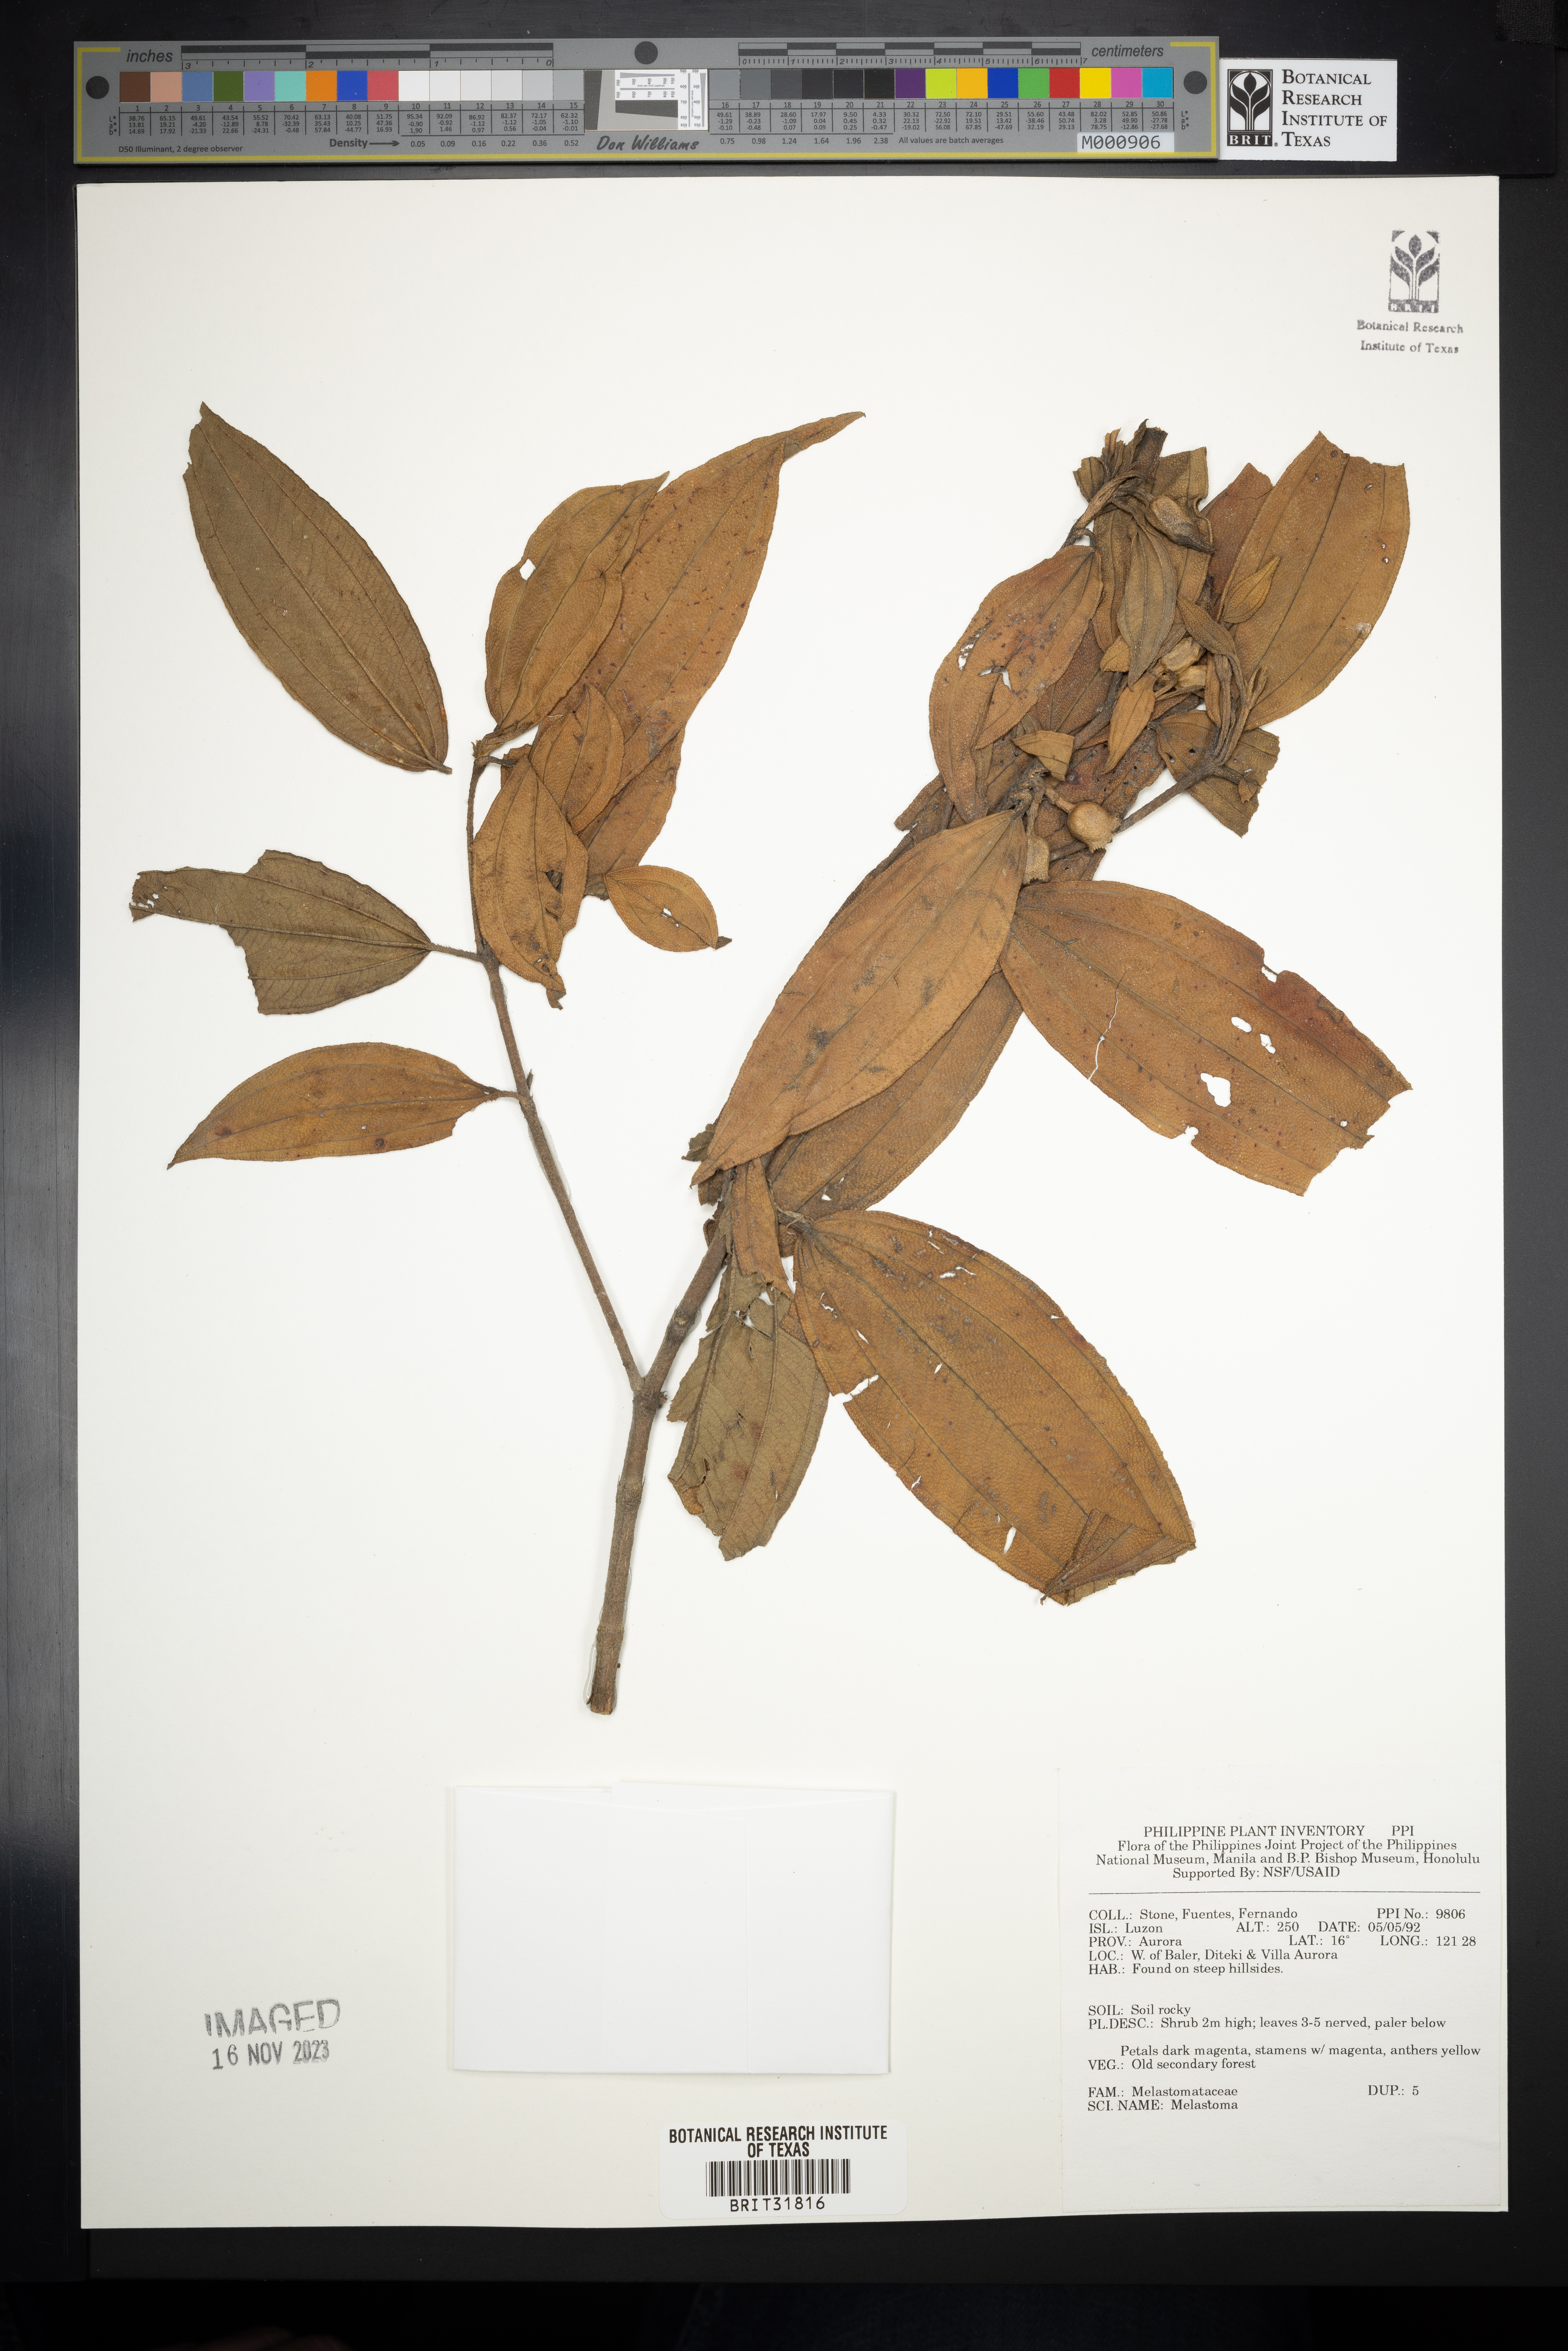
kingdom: Plantae
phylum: Tracheophyta
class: Magnoliopsida
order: Myrtales
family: Melastomataceae
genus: Melastoma
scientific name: Melastoma
